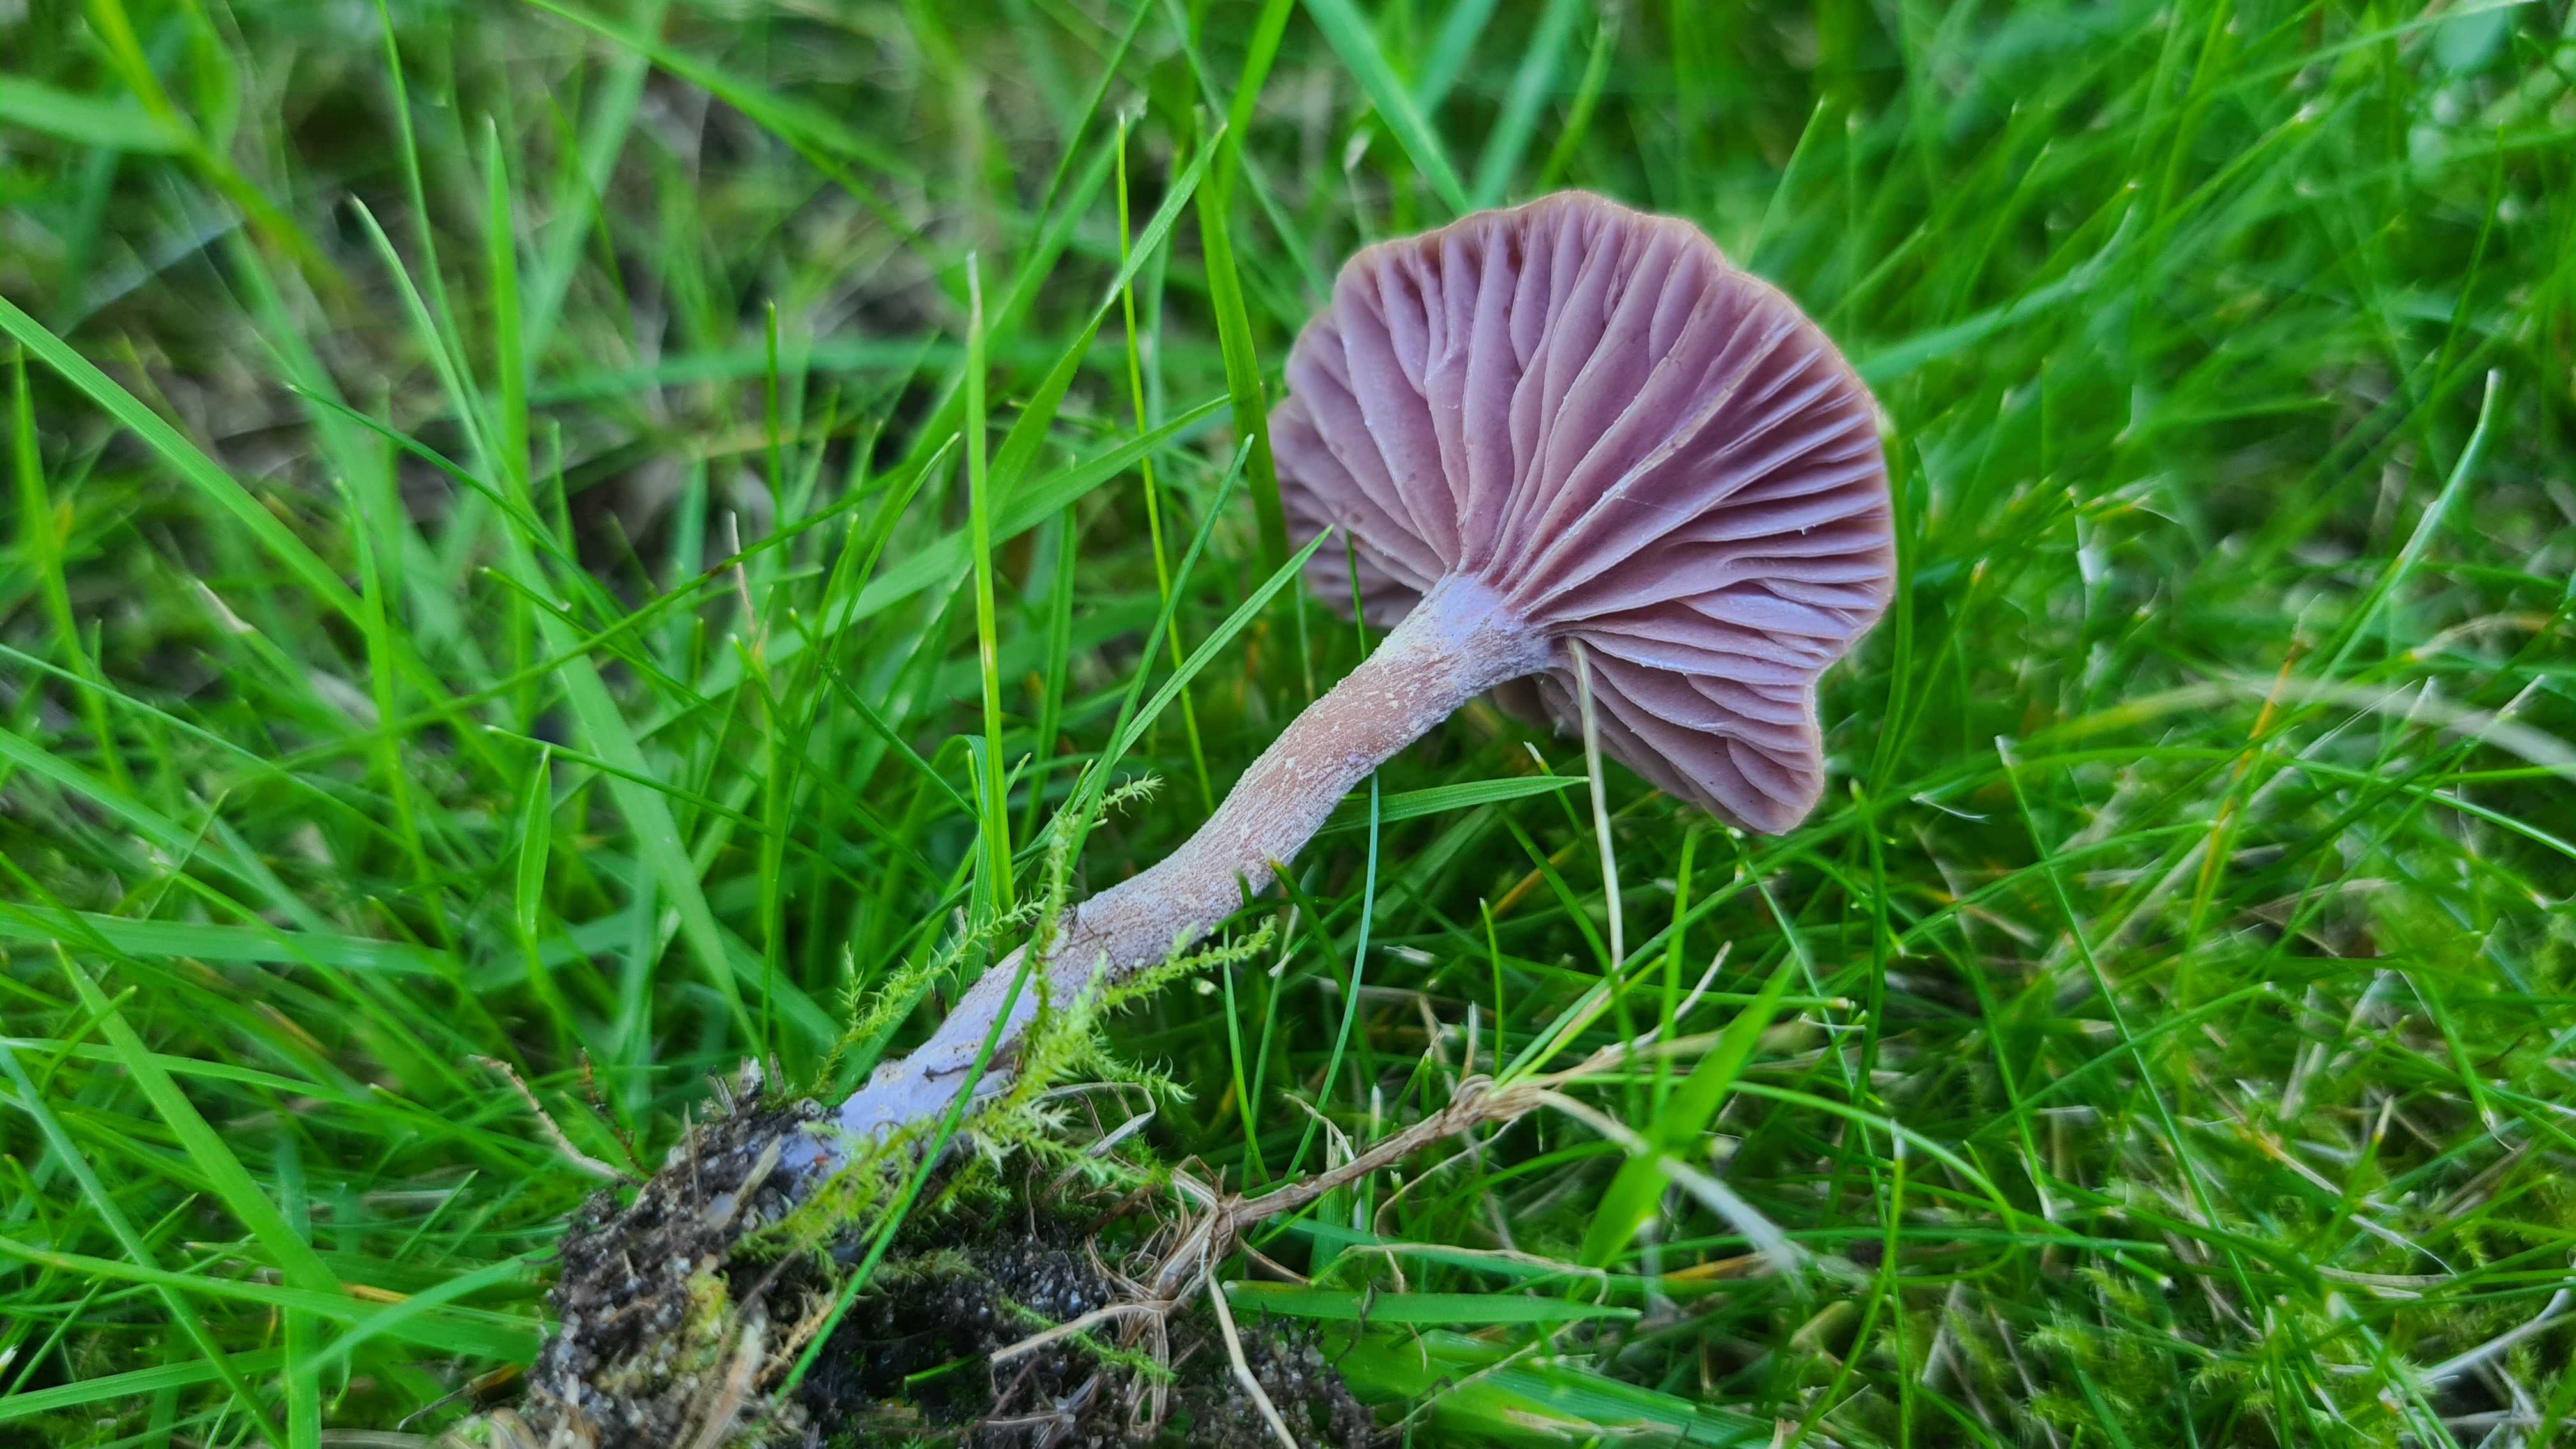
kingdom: Fungi
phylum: Basidiomycota
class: Agaricomycetes
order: Agaricales
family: Hydnangiaceae
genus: Laccaria
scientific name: Laccaria amethystina
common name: violet ametysthat
